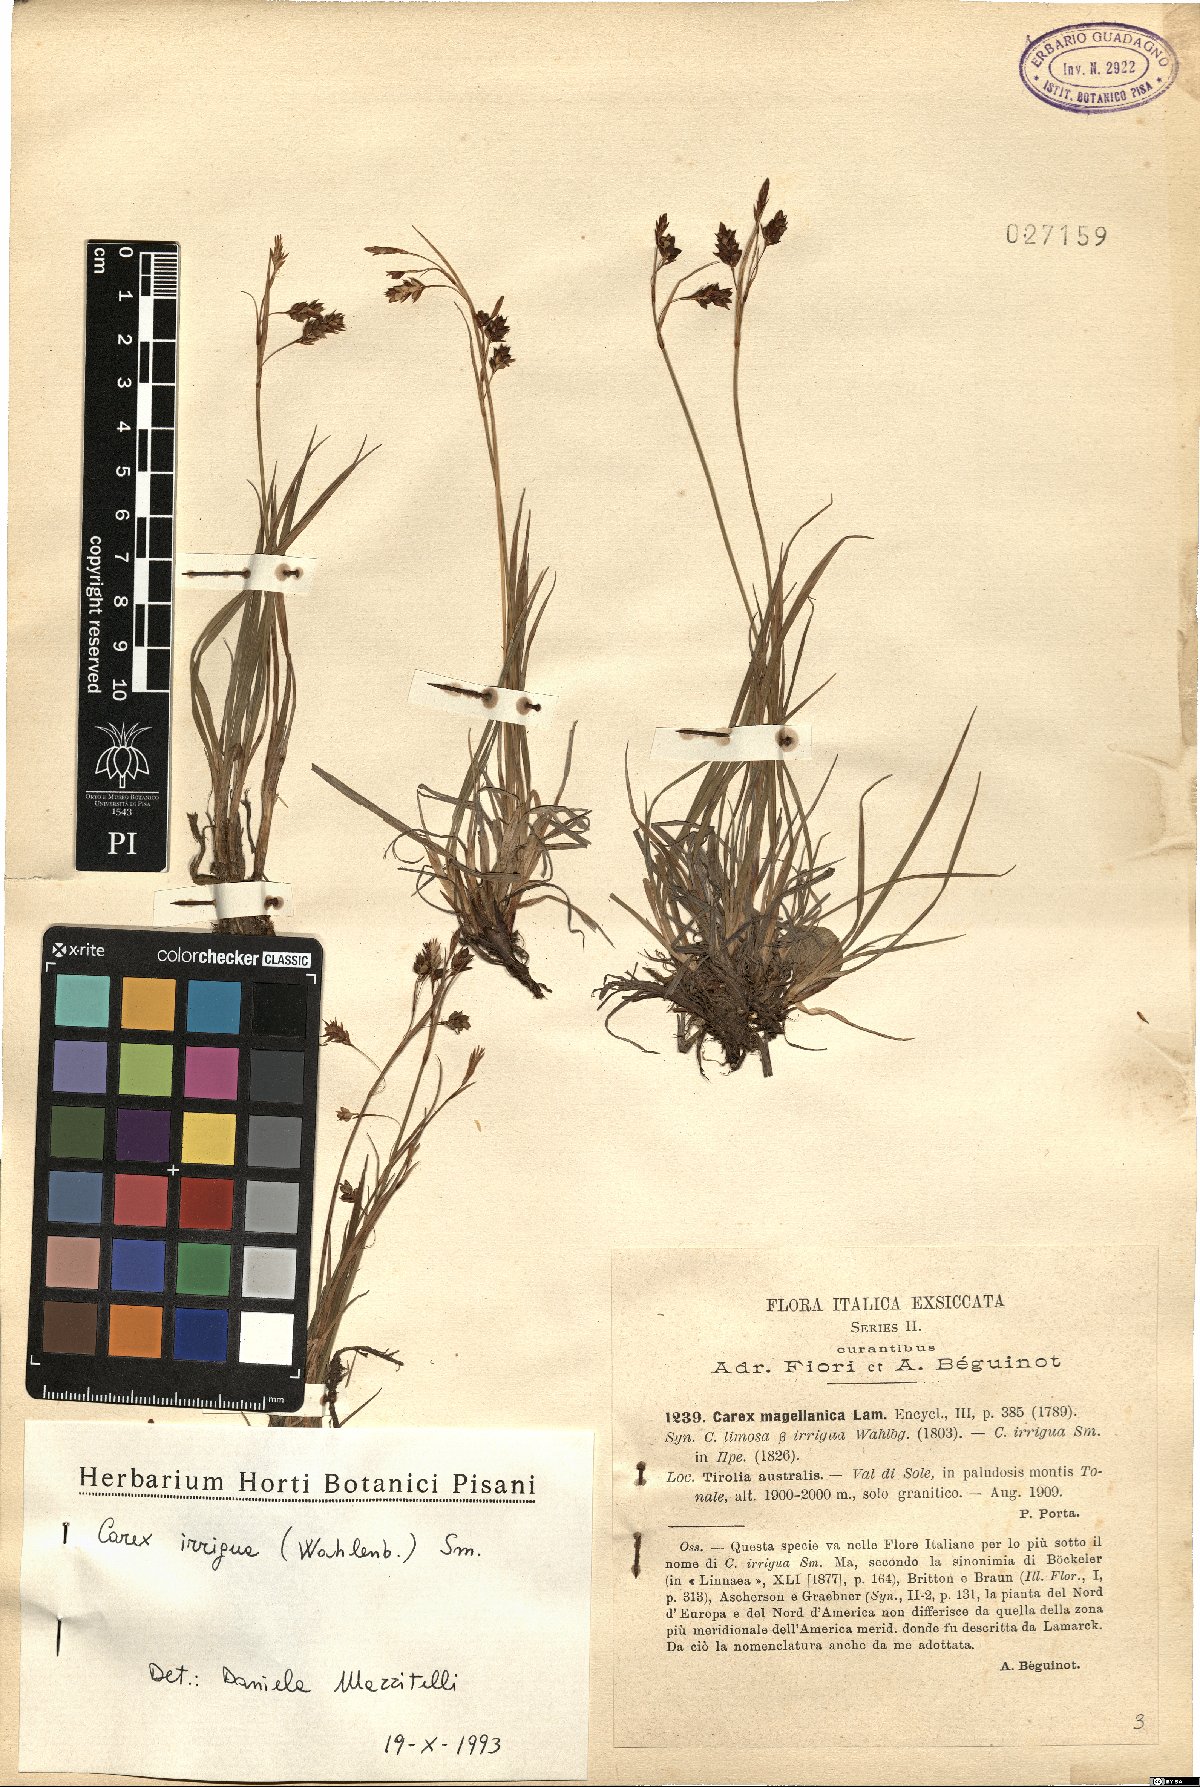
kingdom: Plantae
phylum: Tracheophyta
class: Liliopsida
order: Poales
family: Cyperaceae
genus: Carex
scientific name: Carex magellanica
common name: Bog sedge
